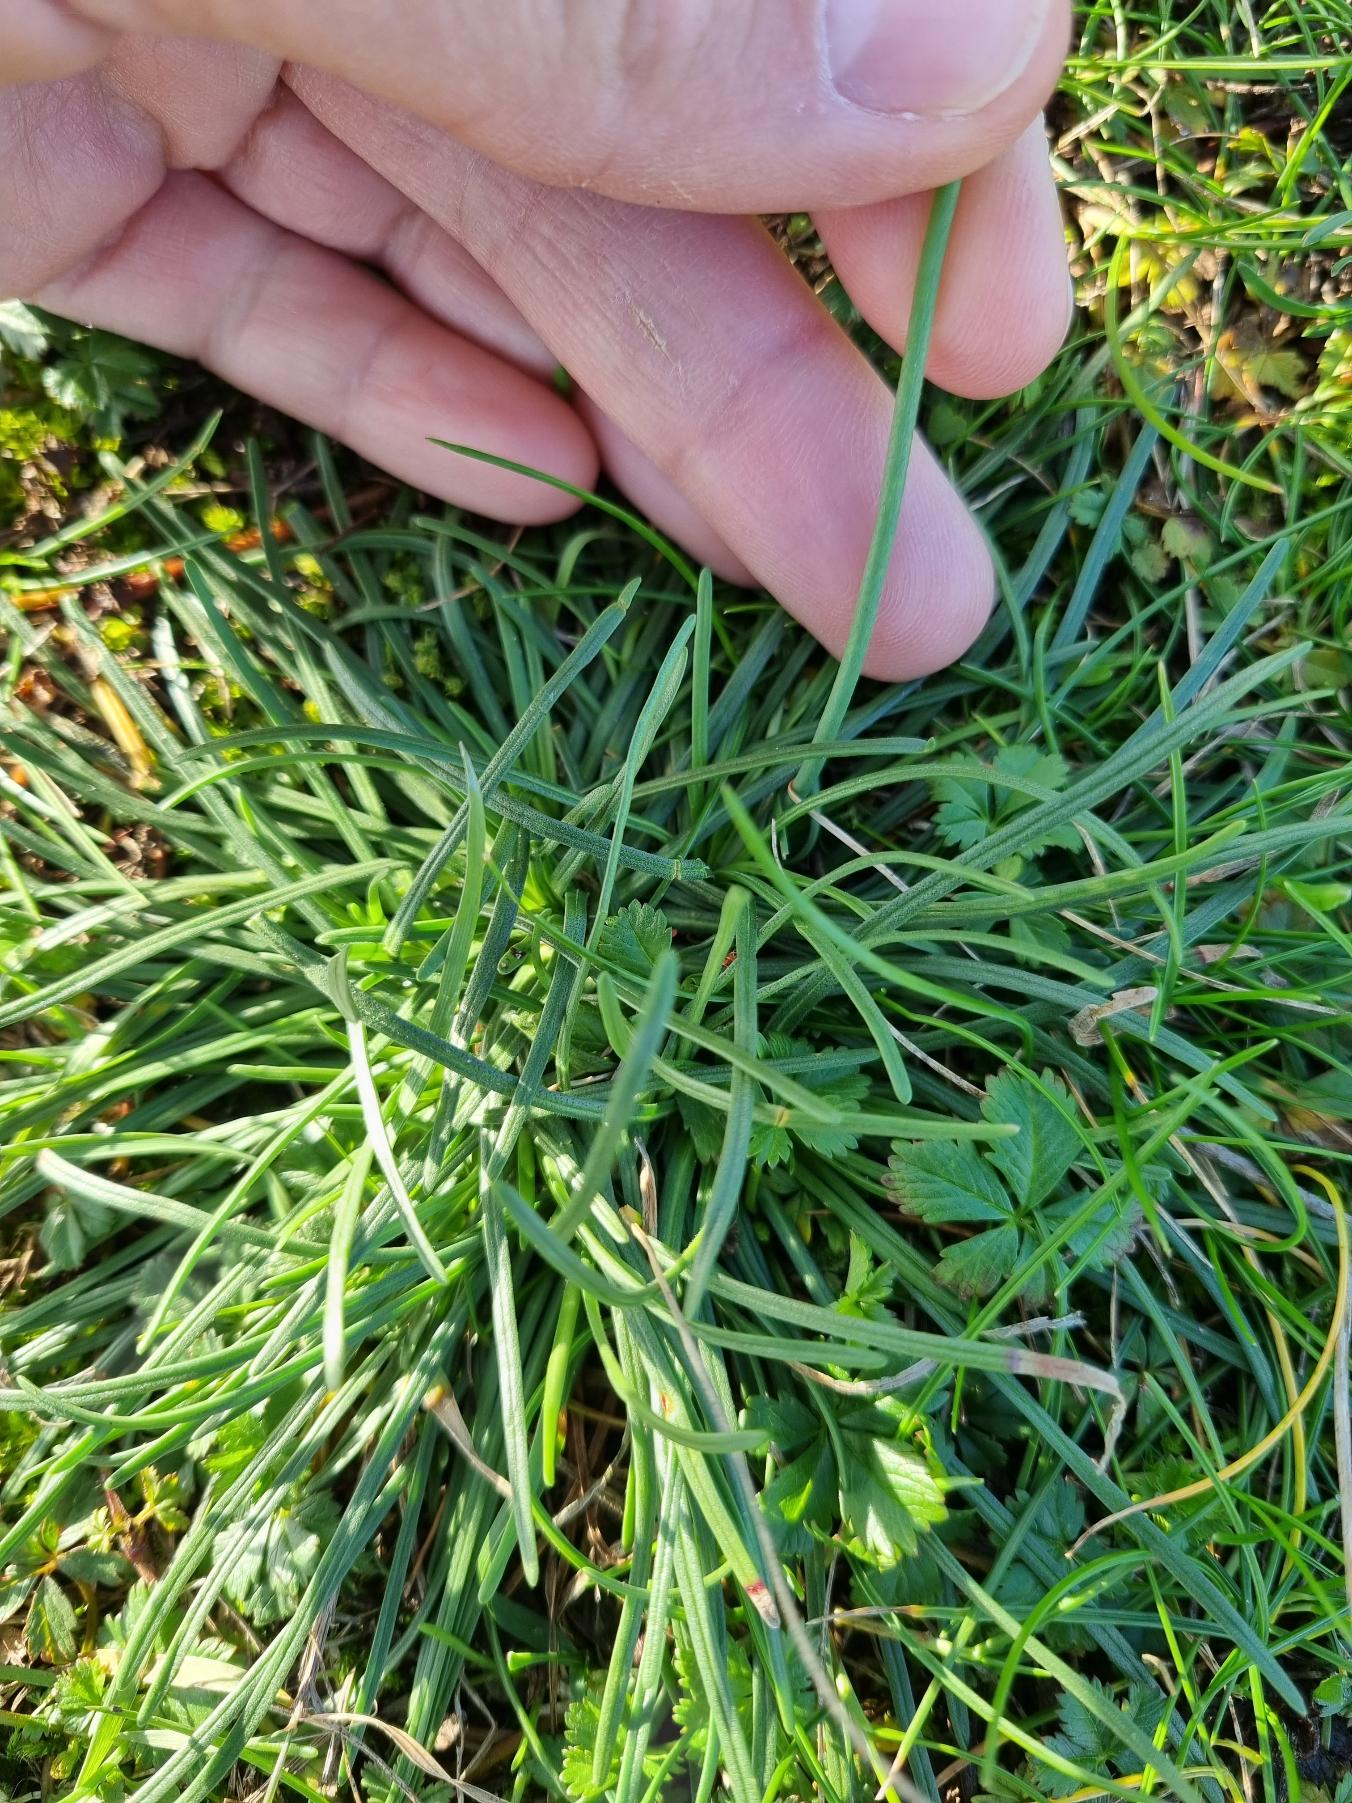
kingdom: Plantae
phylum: Tracheophyta
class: Magnoliopsida
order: Caryophyllales
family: Plumbaginaceae
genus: Armeria
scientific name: Armeria maritima
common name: Engelskgræs
